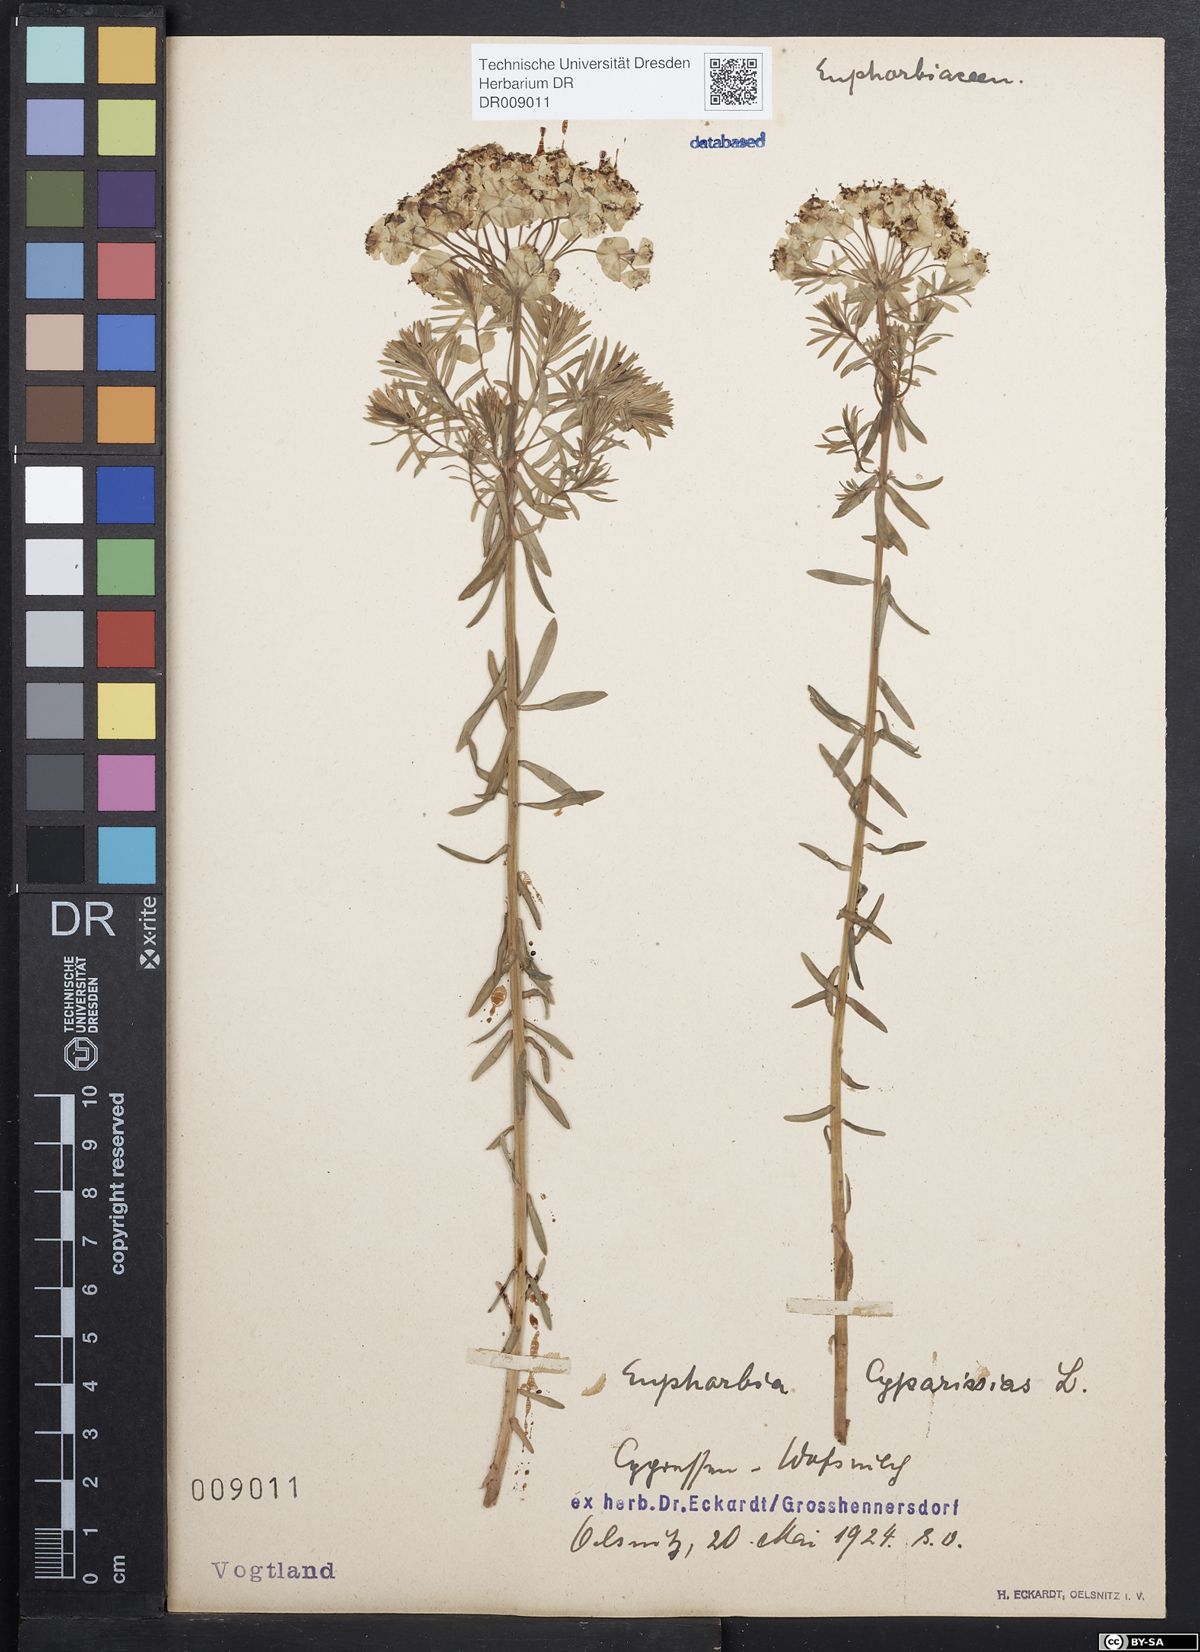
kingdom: Plantae
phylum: Tracheophyta
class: Magnoliopsida
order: Malpighiales
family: Euphorbiaceae
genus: Euphorbia
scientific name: Euphorbia cyparissias
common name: Cypress spurge
